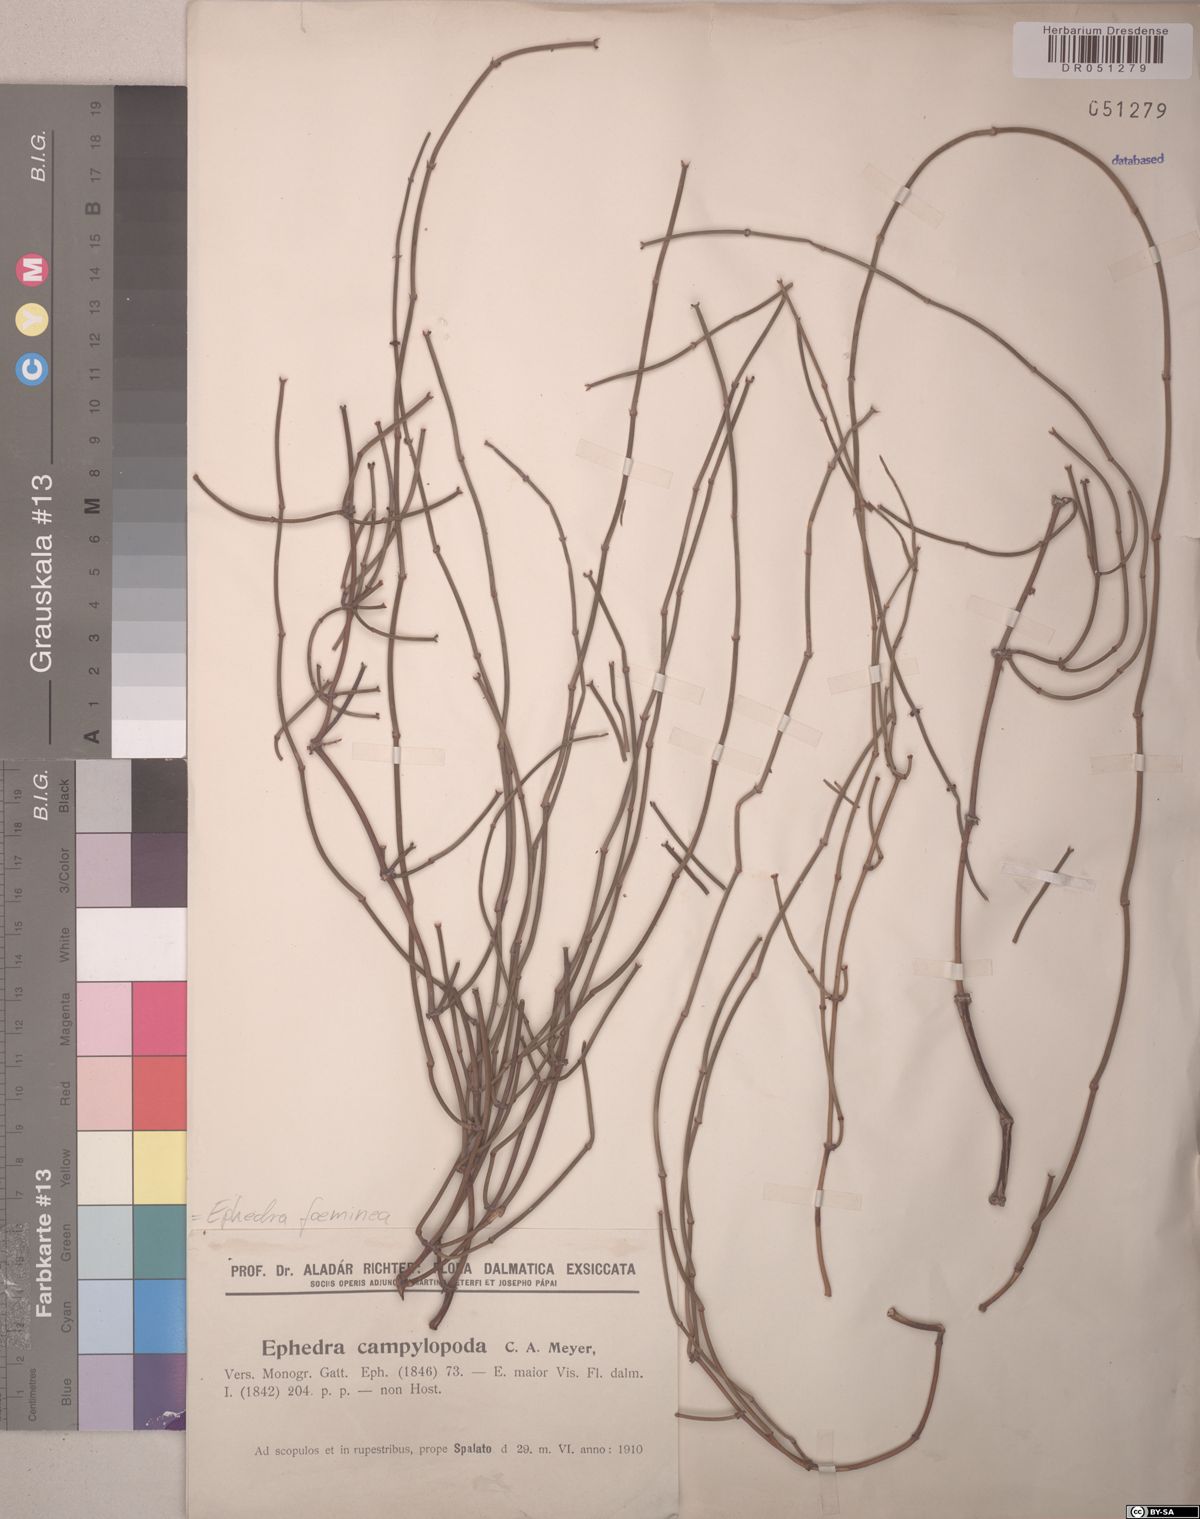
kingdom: Plantae
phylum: Tracheophyta
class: Gnetopsida
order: Ephedrales
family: Ephedraceae
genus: Ephedra
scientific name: Ephedra foeminea
